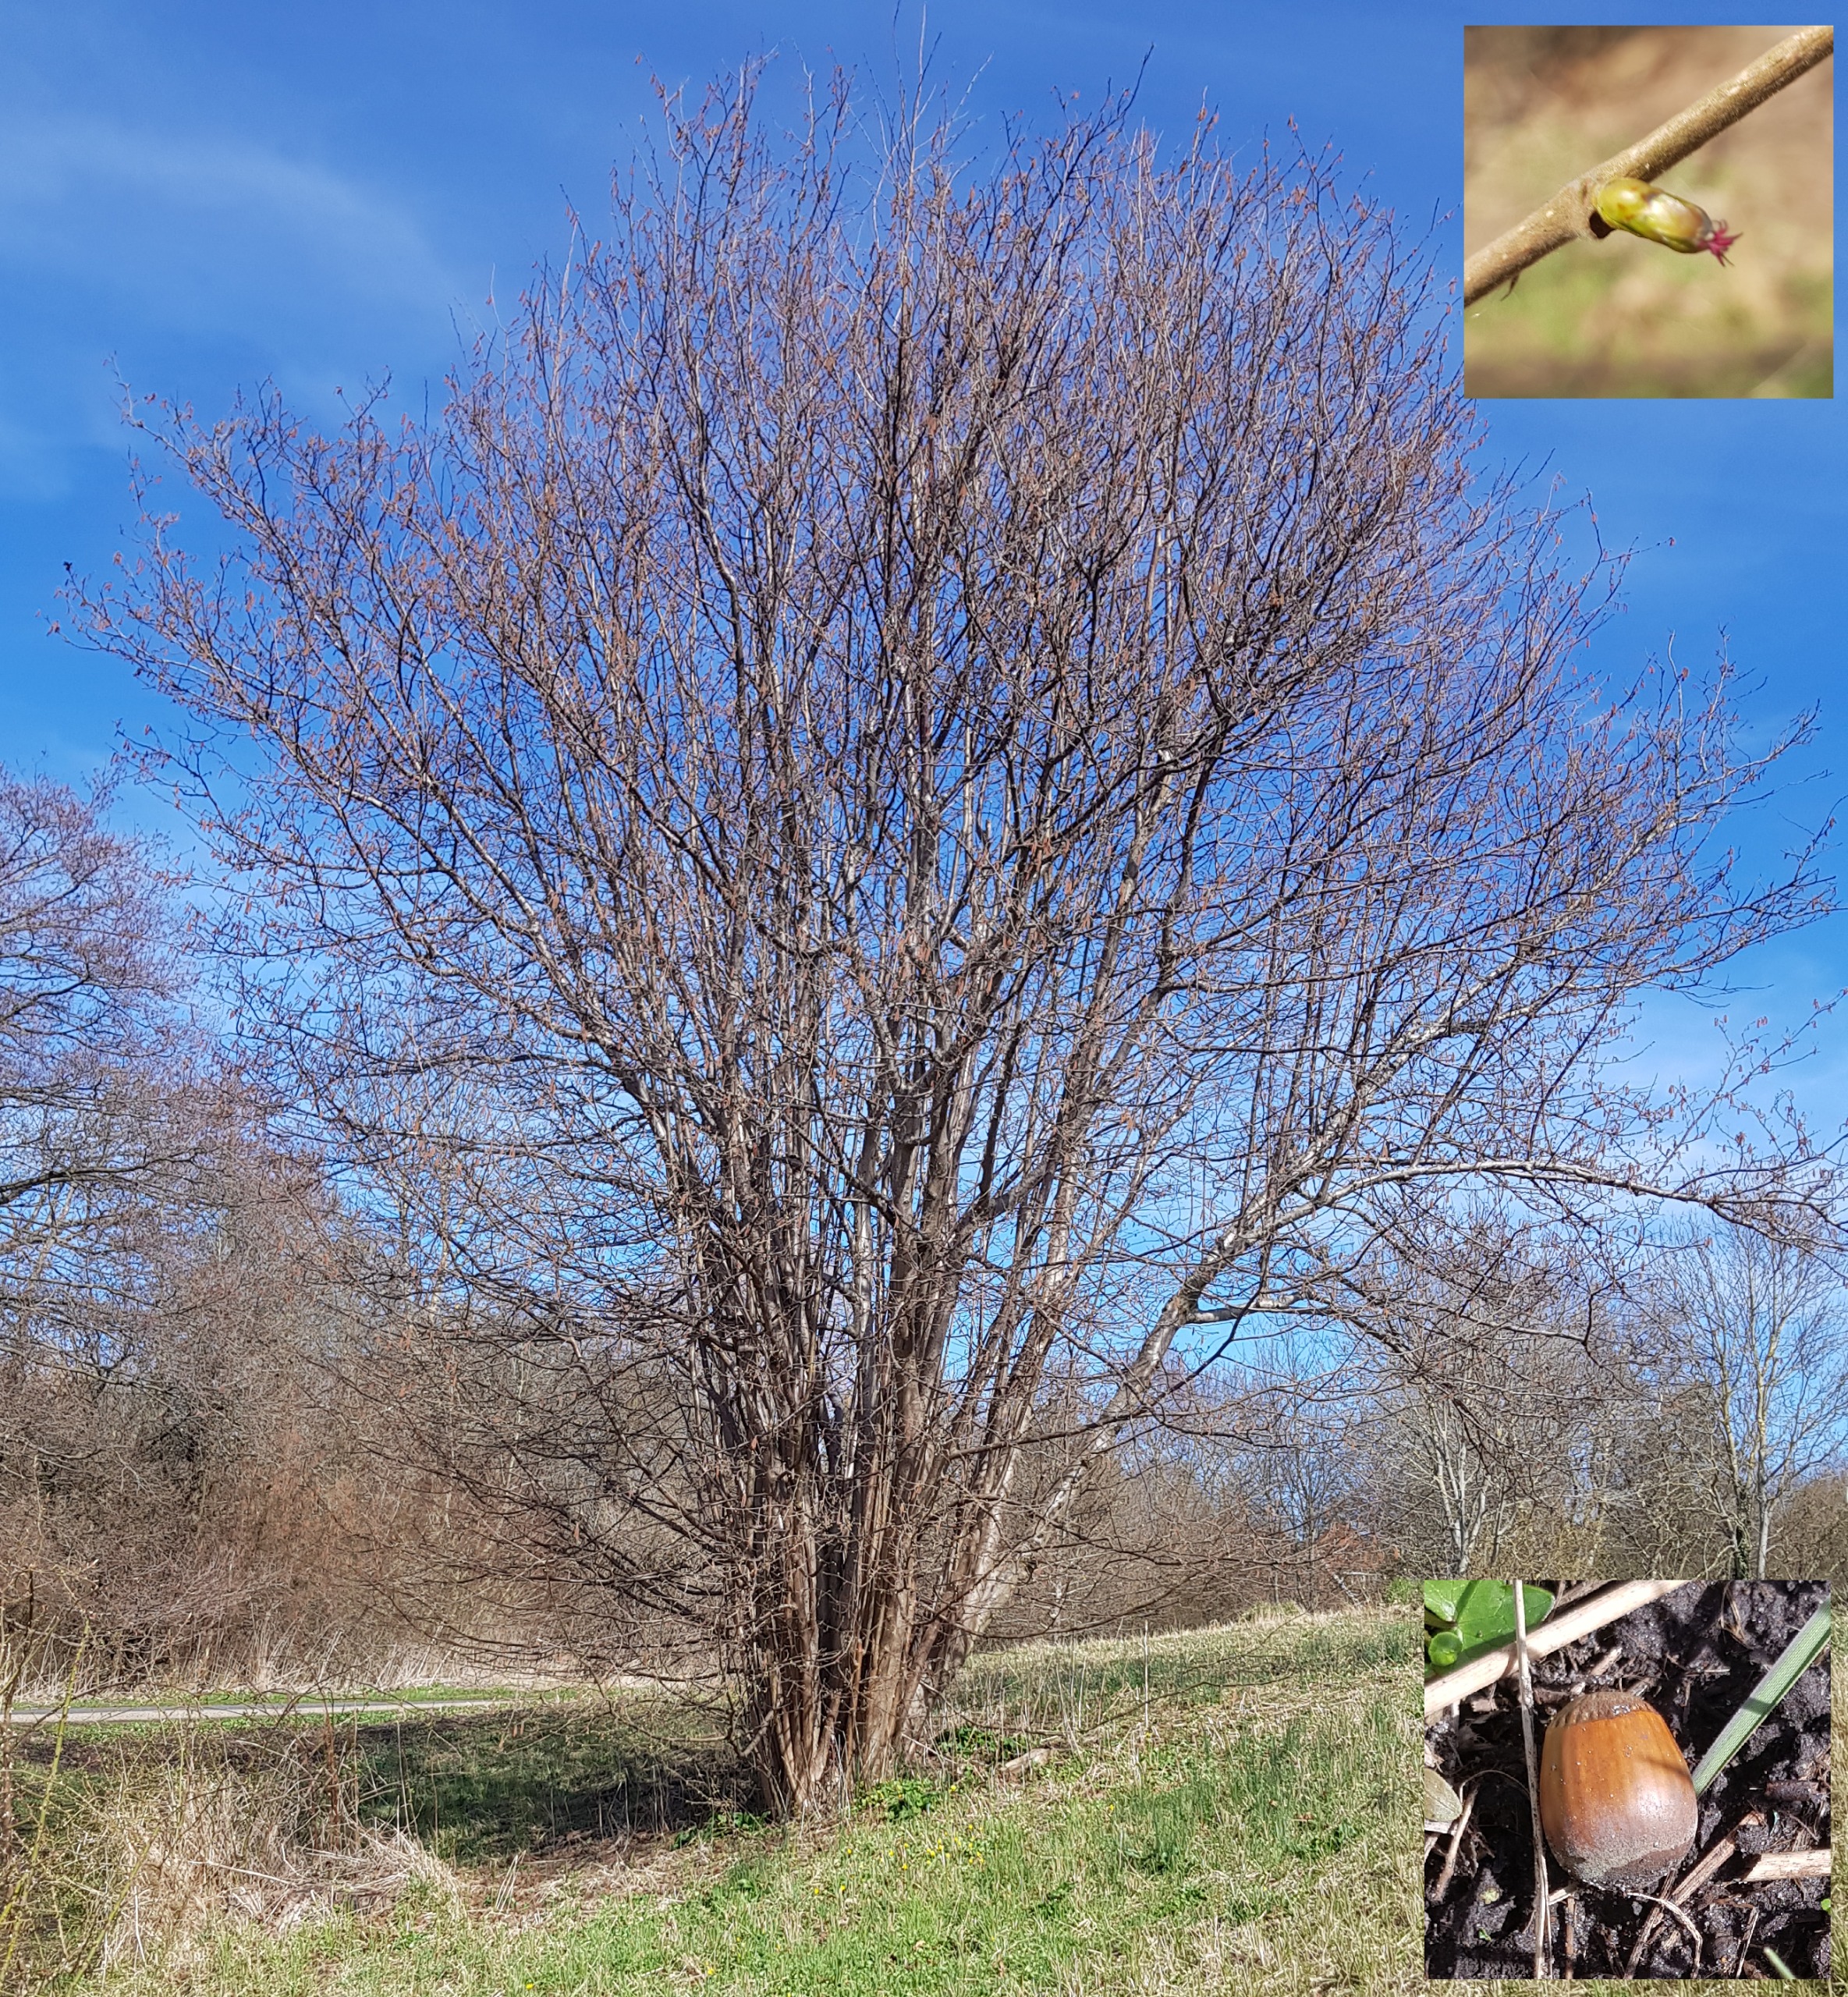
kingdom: Plantae
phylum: Tracheophyta
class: Magnoliopsida
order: Fagales
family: Betulaceae
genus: Corylus
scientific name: Corylus avellana
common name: Hassel
